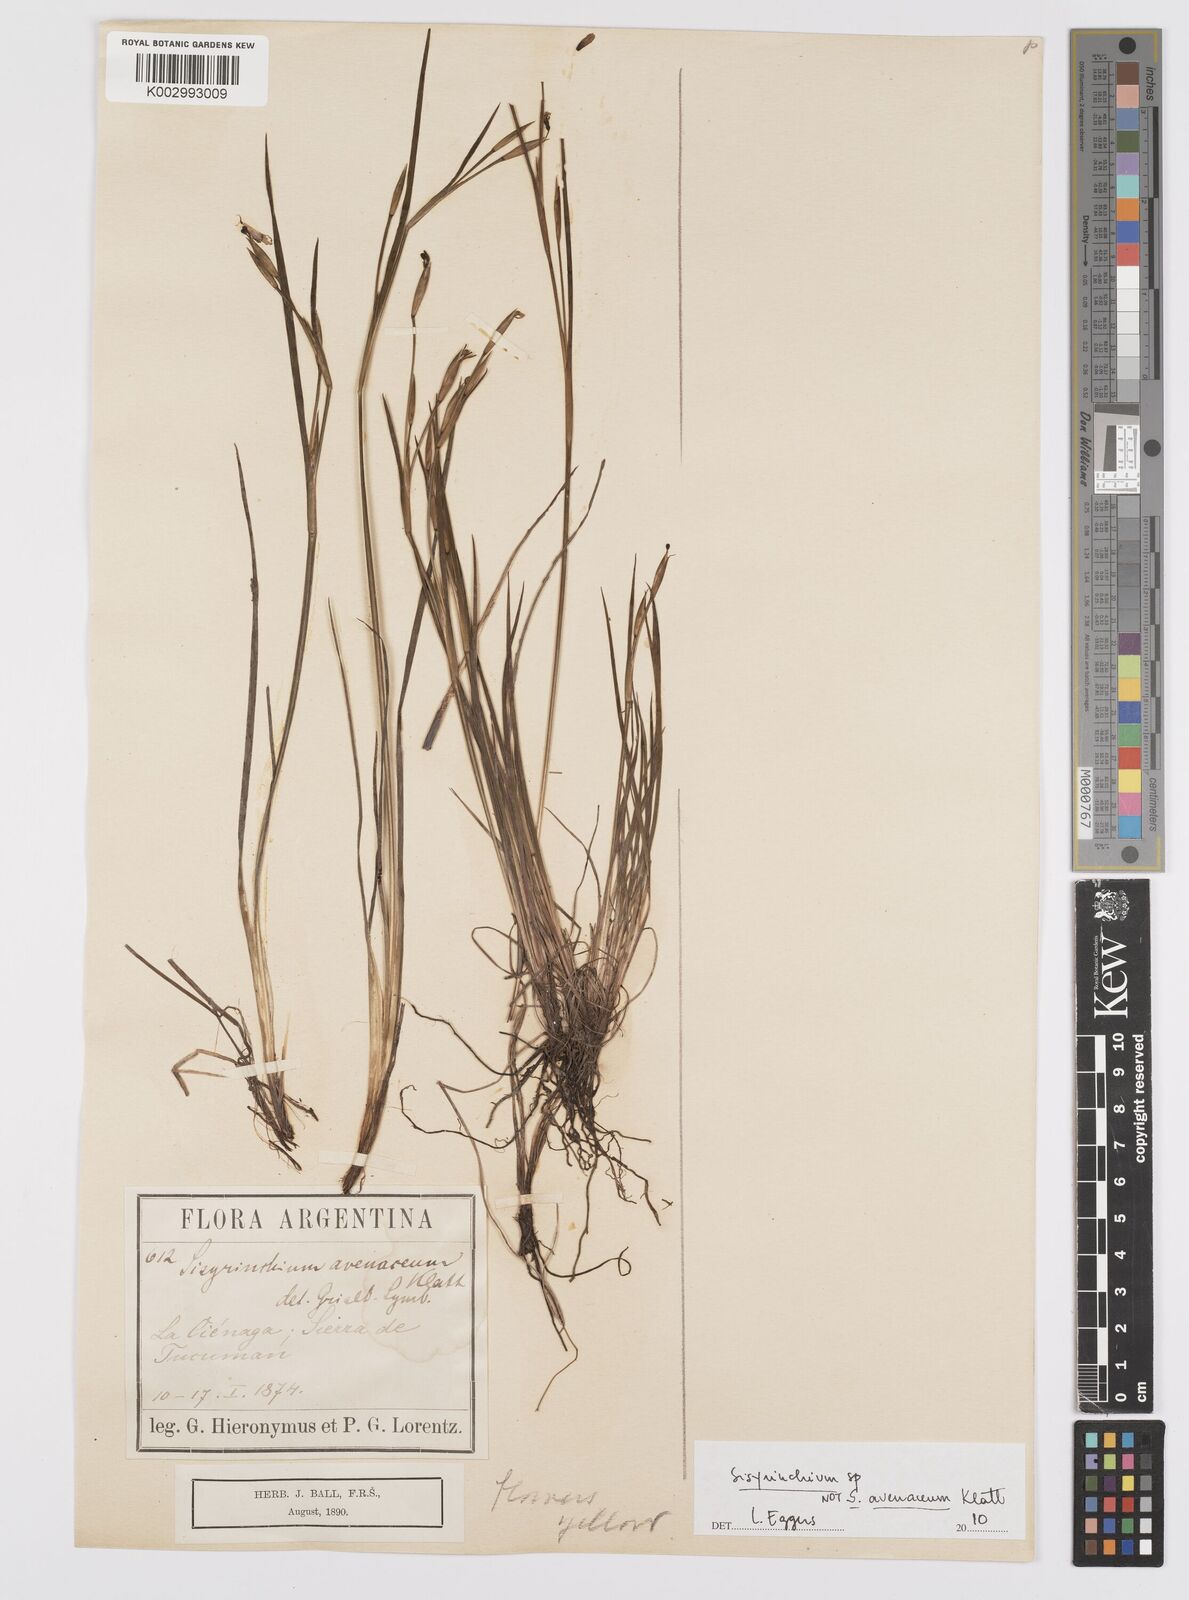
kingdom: Plantae
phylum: Tracheophyta
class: Liliopsida
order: Asparagales
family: Iridaceae
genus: Sisyrinchium
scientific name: Sisyrinchium
